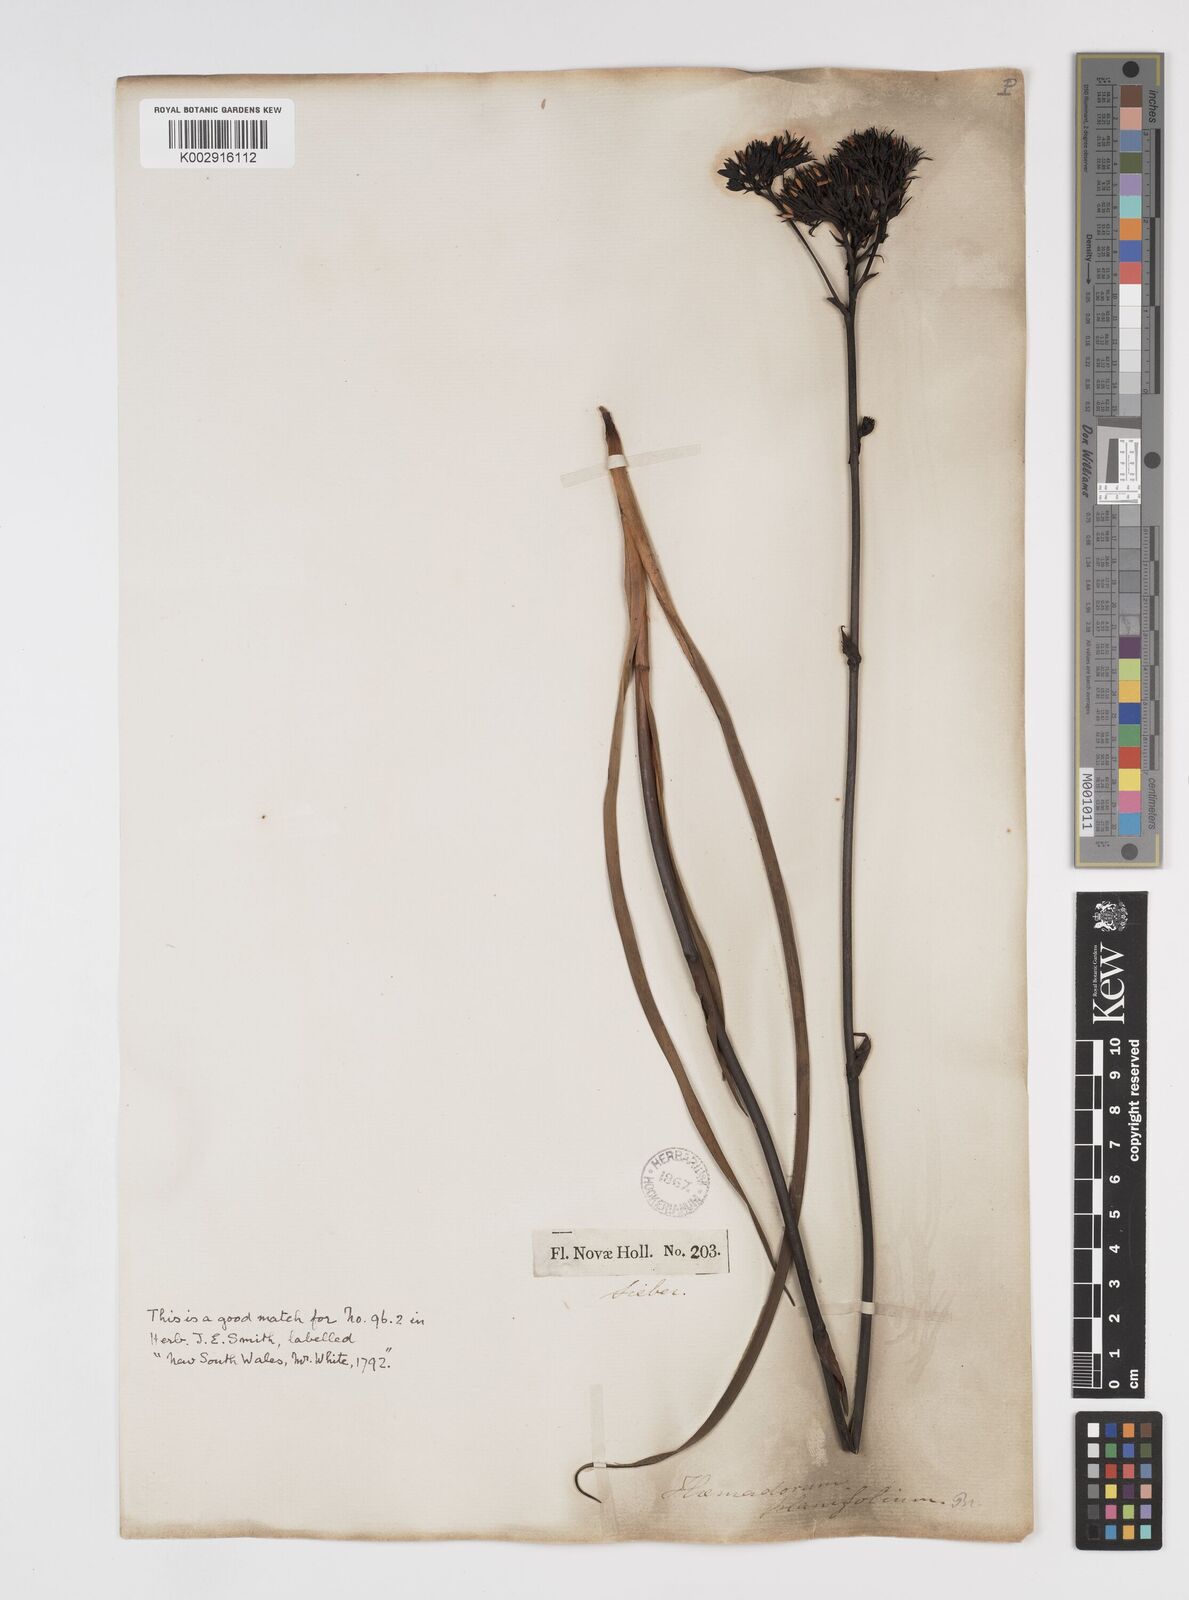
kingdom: Plantae
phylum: Tracheophyta
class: Liliopsida
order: Commelinales
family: Haemodoraceae
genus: Haemodorum
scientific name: Haemodorum planifolium
